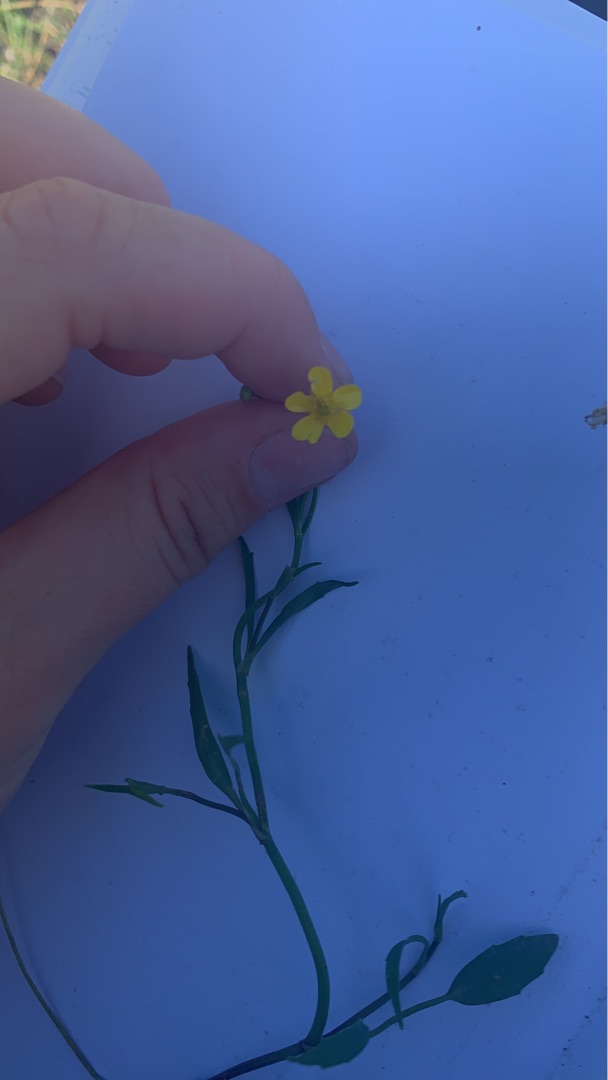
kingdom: Plantae
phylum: Tracheophyta
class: Magnoliopsida
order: Ranunculales
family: Ranunculaceae
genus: Ranunculus
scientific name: Ranunculus flammula
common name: Kær-ranunkel
